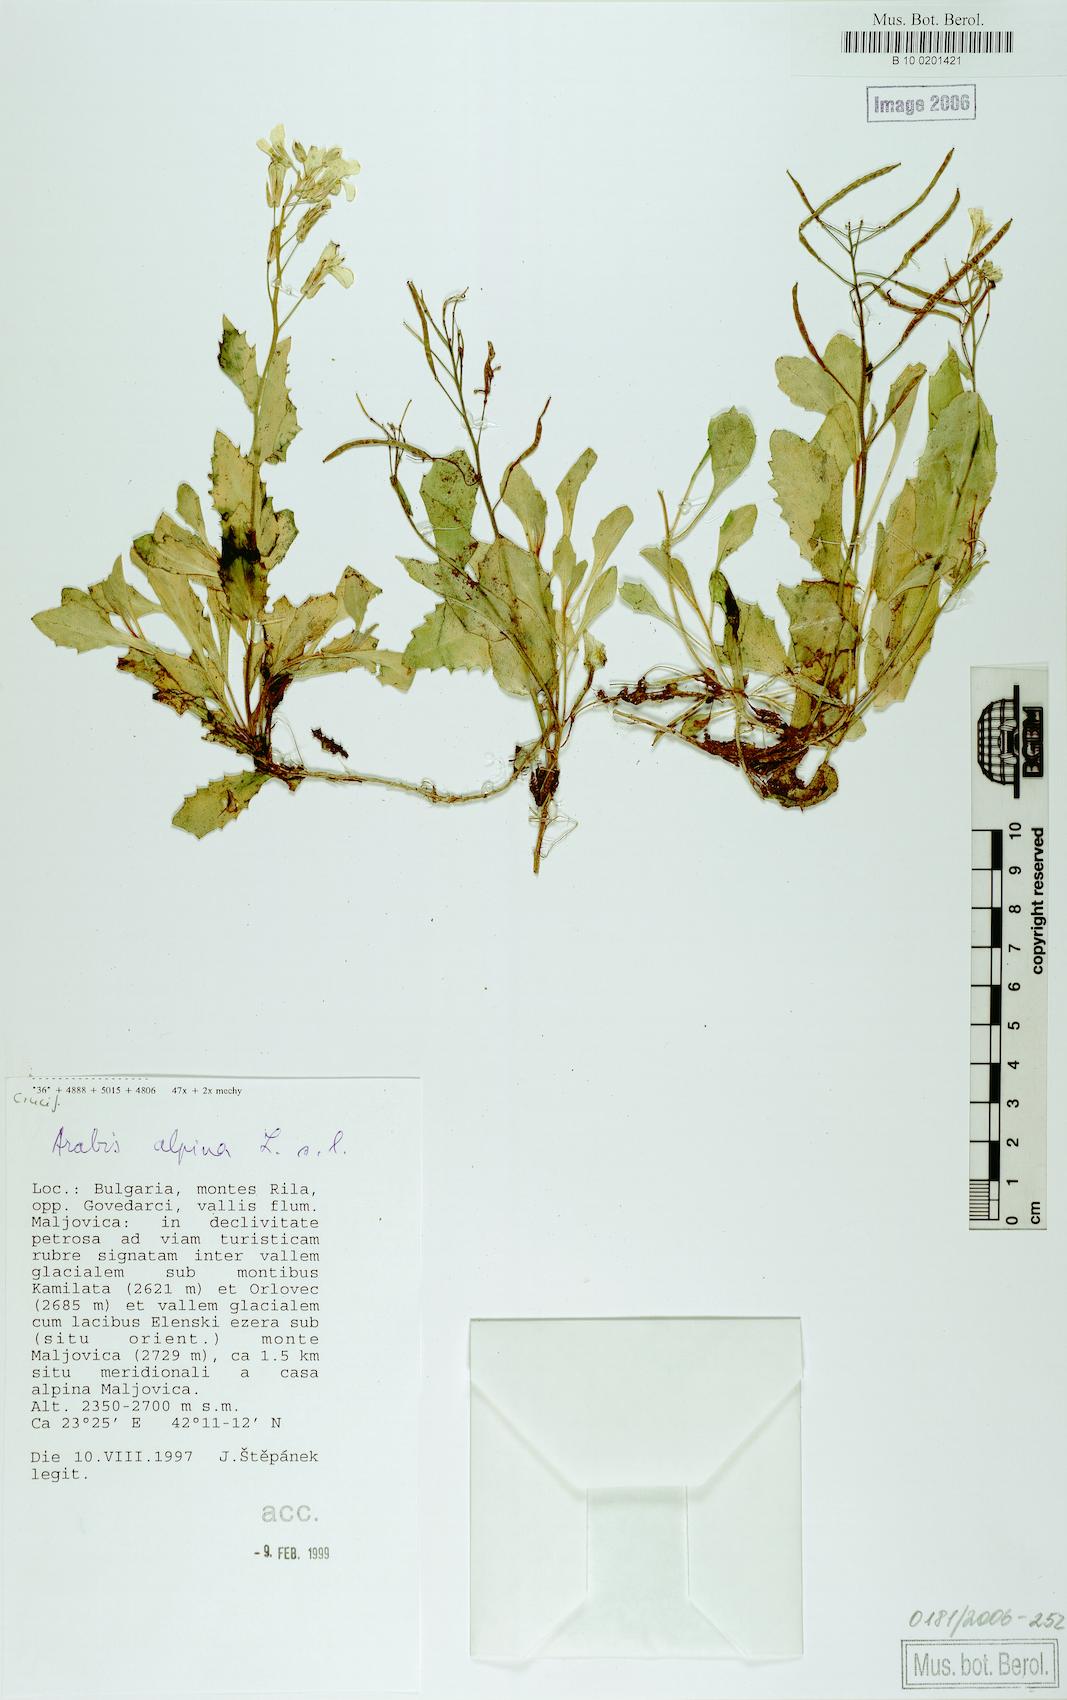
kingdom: Plantae
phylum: Tracheophyta
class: Magnoliopsida
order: Brassicales
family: Brassicaceae
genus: Arabis
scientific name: Arabis alpina
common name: Alpine rock-cress
